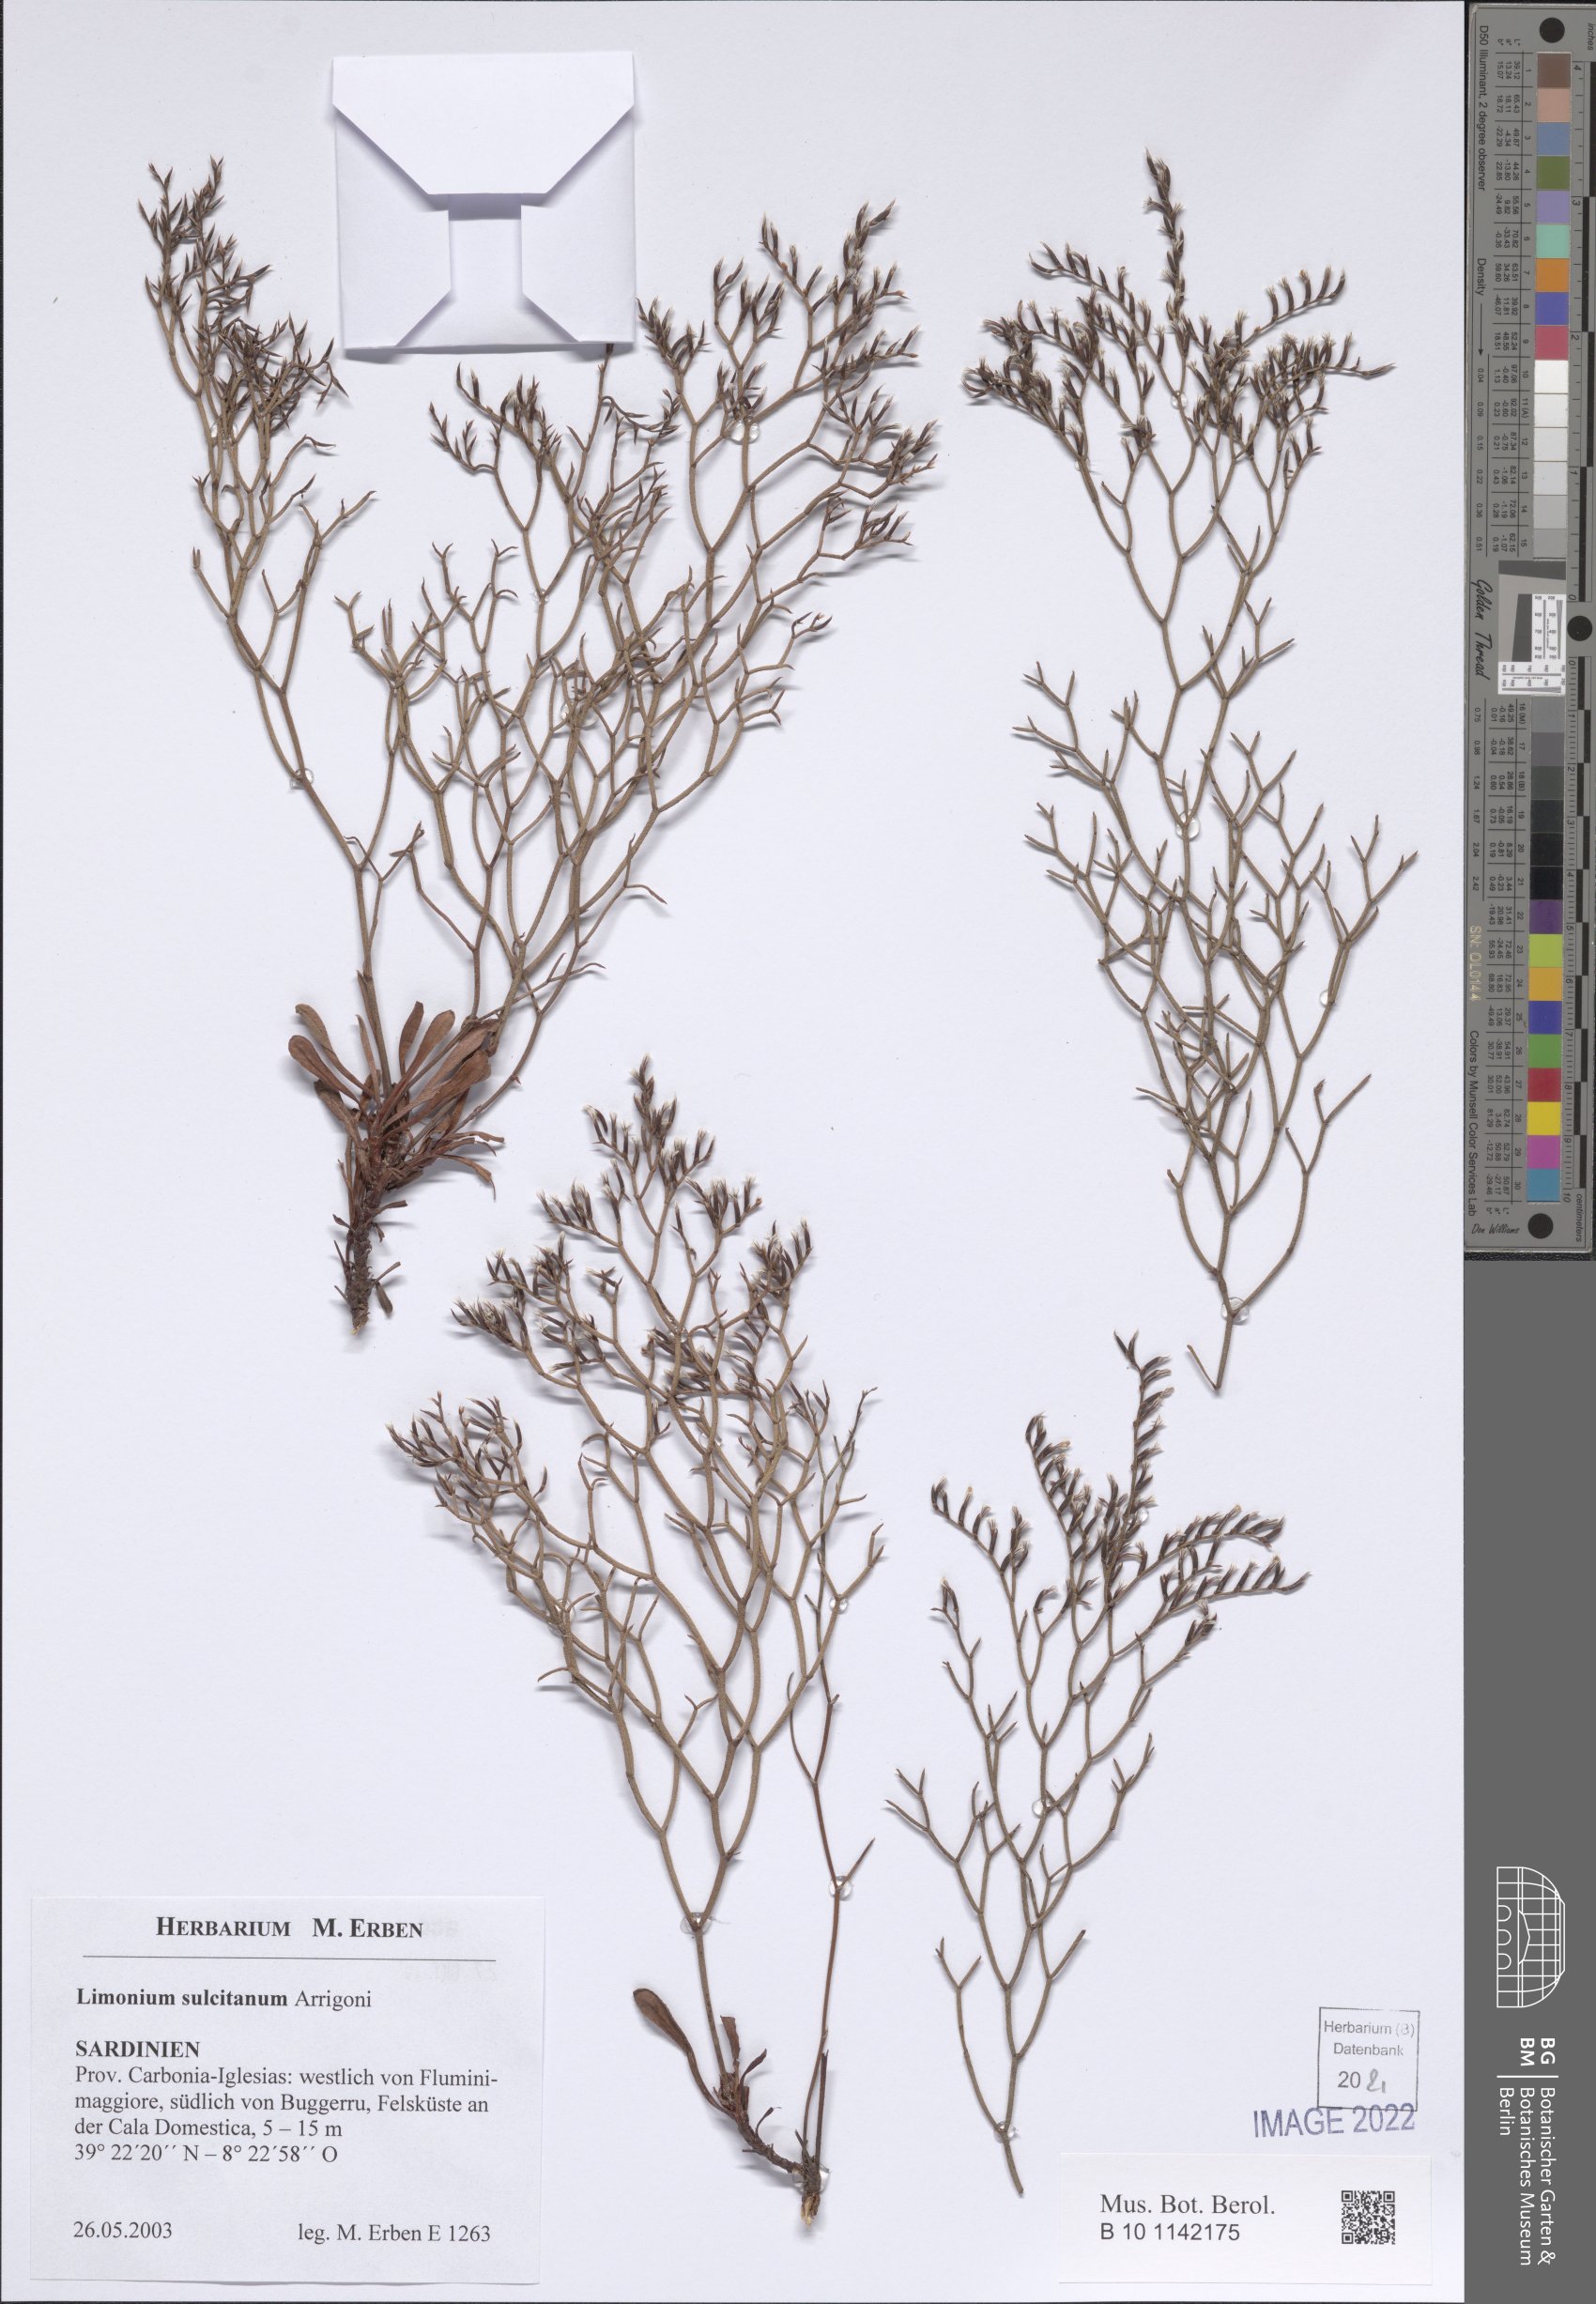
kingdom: Plantae
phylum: Tracheophyta
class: Magnoliopsida
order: Caryophyllales
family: Plumbaginaceae
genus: Limonium
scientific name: Limonium sulcitanum
